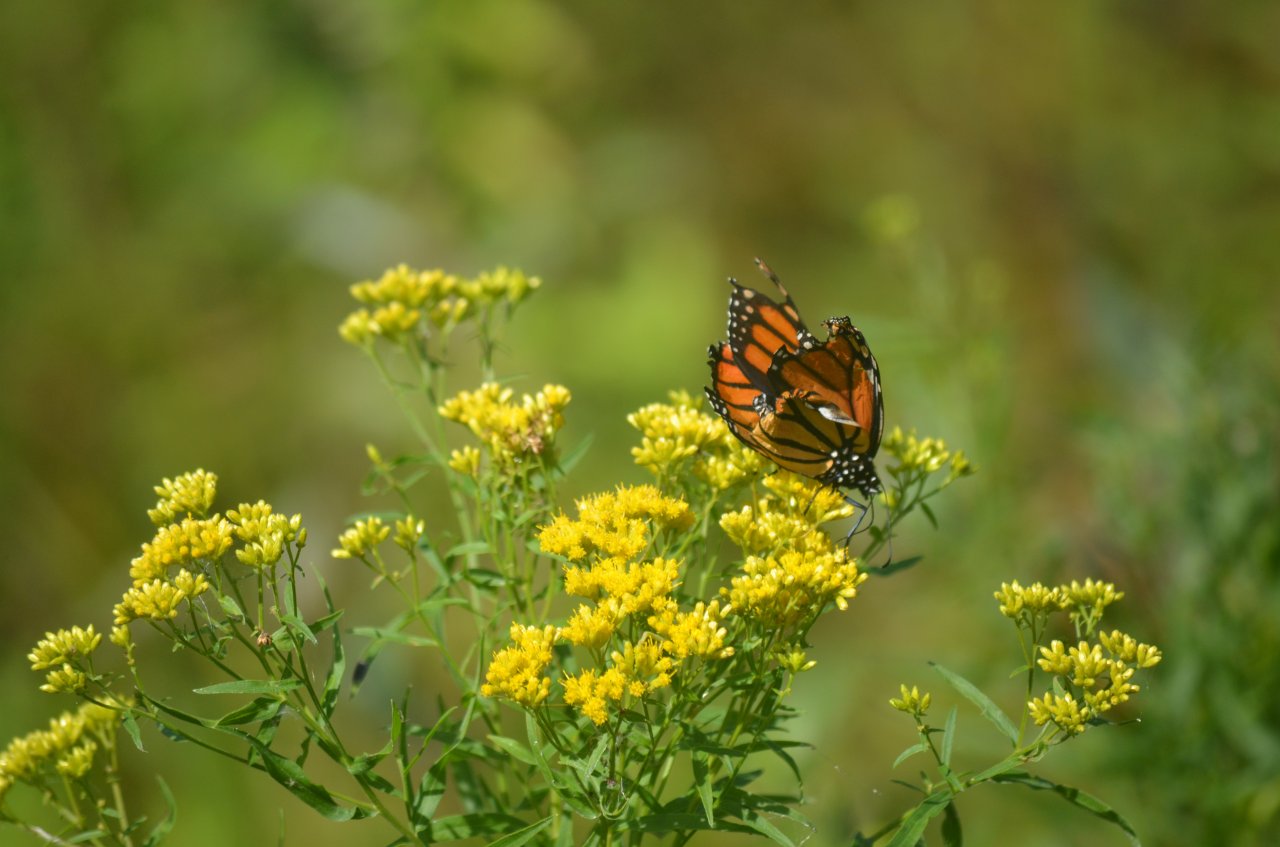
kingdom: Animalia
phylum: Arthropoda
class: Insecta
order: Lepidoptera
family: Nymphalidae
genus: Danaus
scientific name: Danaus plexippus
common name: Monarch
